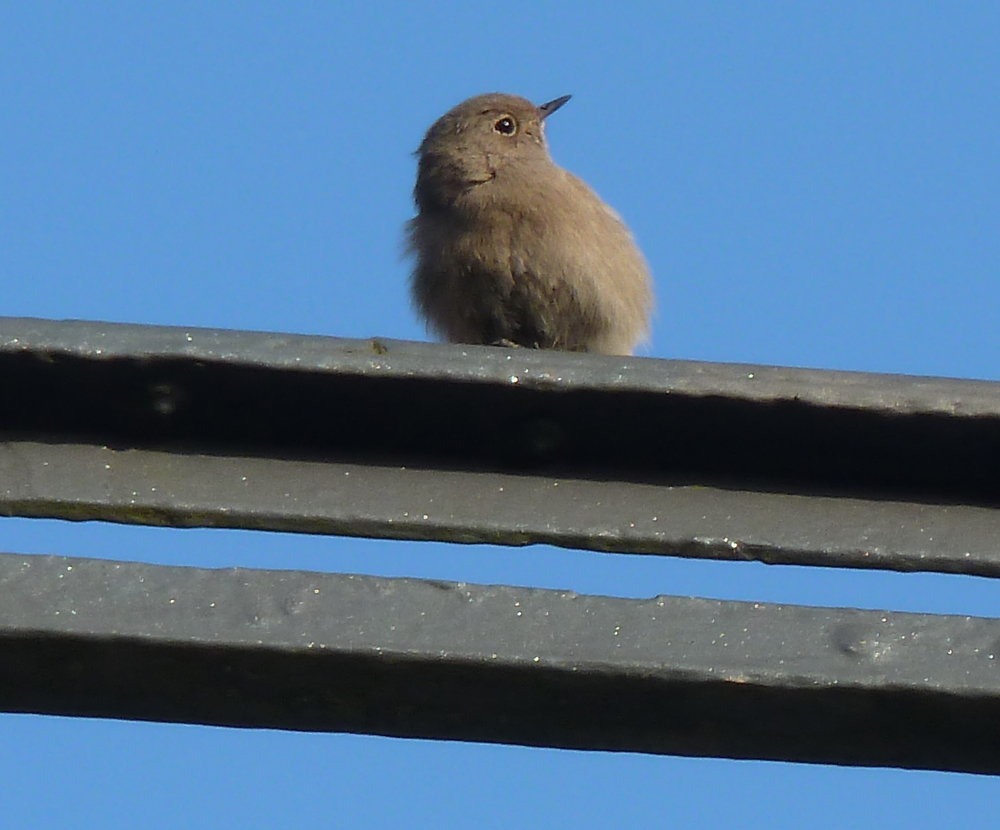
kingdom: Animalia
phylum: Chordata
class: Aves
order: Passeriformes
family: Muscicapidae
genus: Phoenicurus
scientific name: Phoenicurus ochruros
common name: Black redstart
